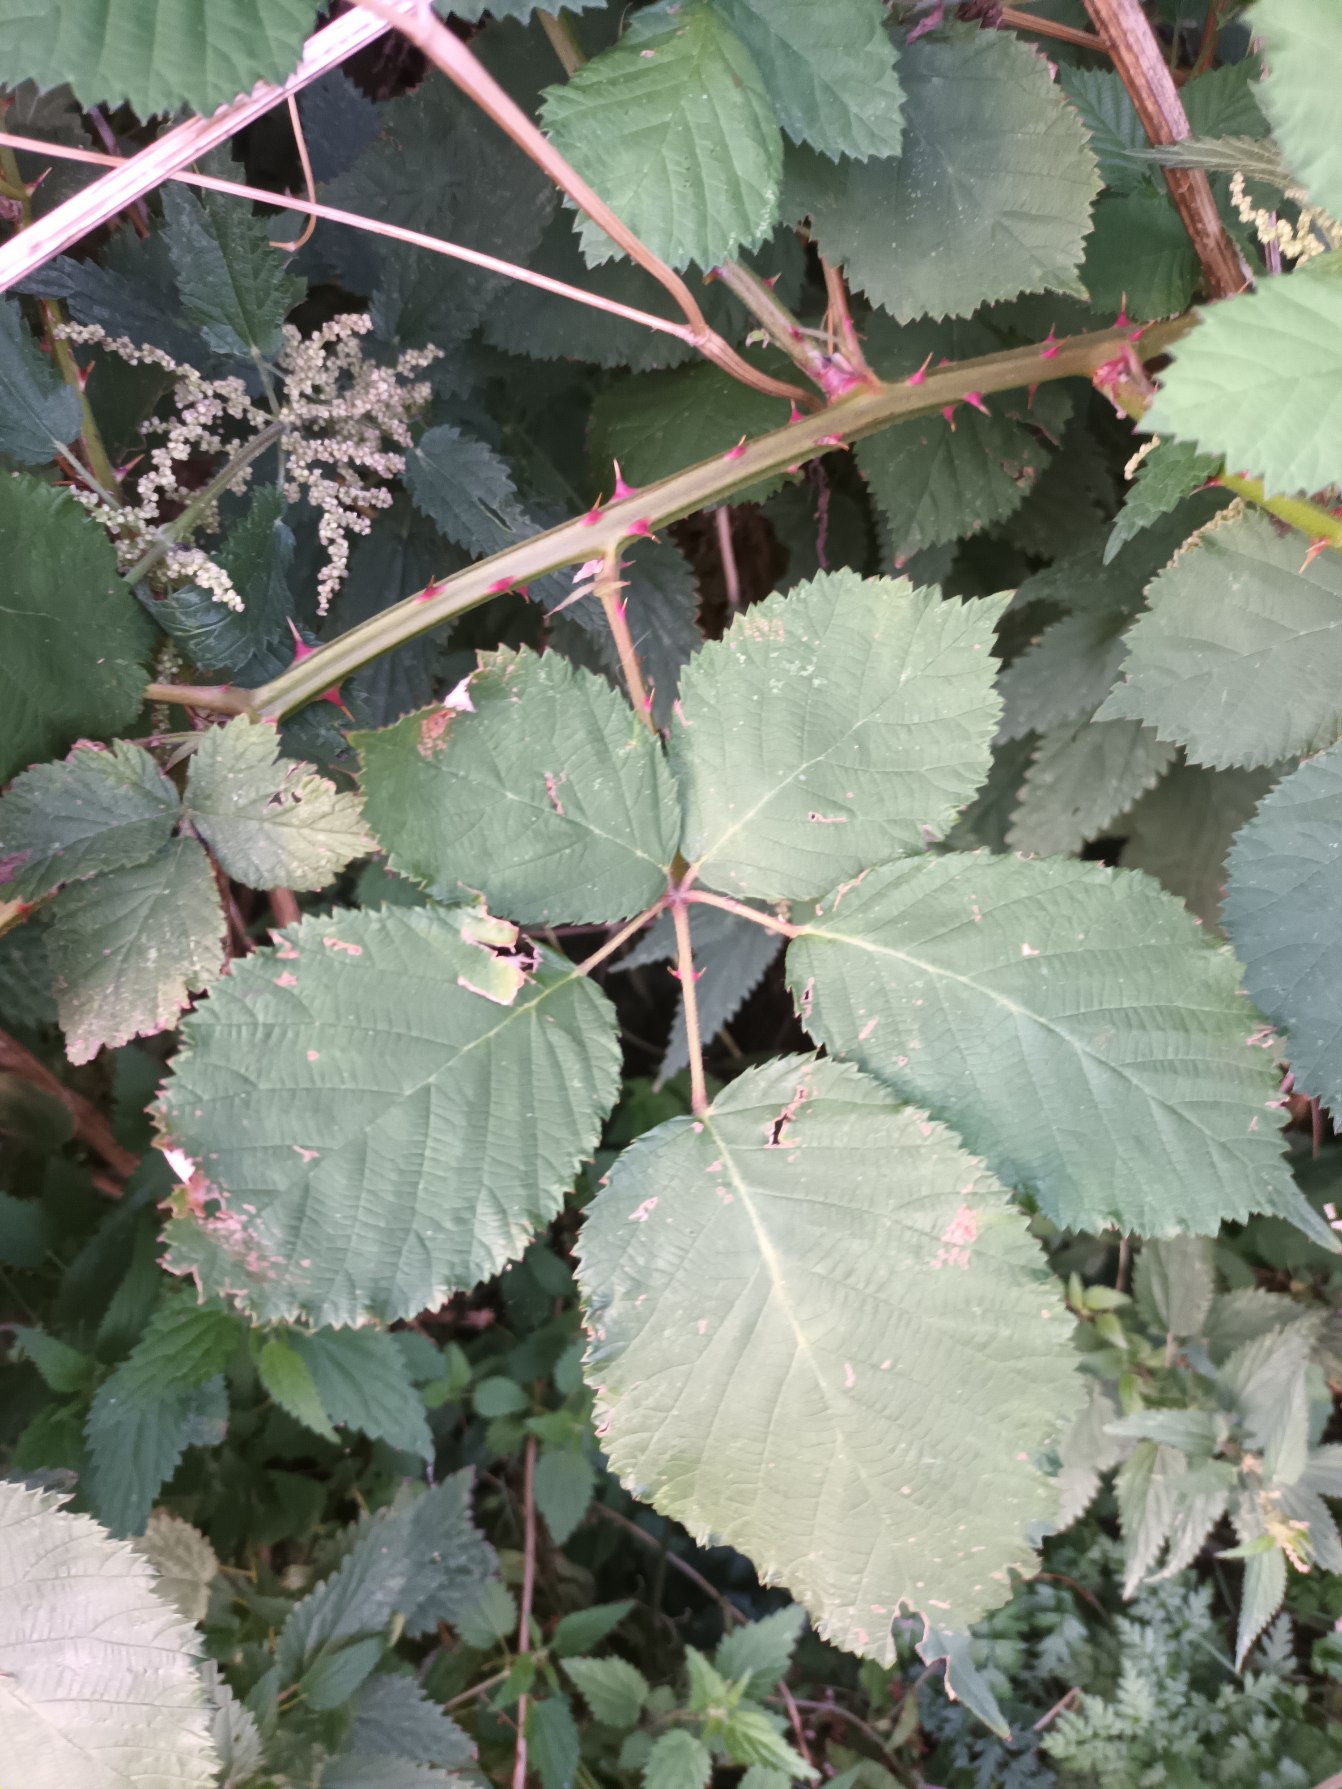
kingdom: Plantae
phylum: Tracheophyta
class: Magnoliopsida
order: Rosales
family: Rosaceae
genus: Rubus
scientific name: Rubus armeniacus
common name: Armensk brombær
